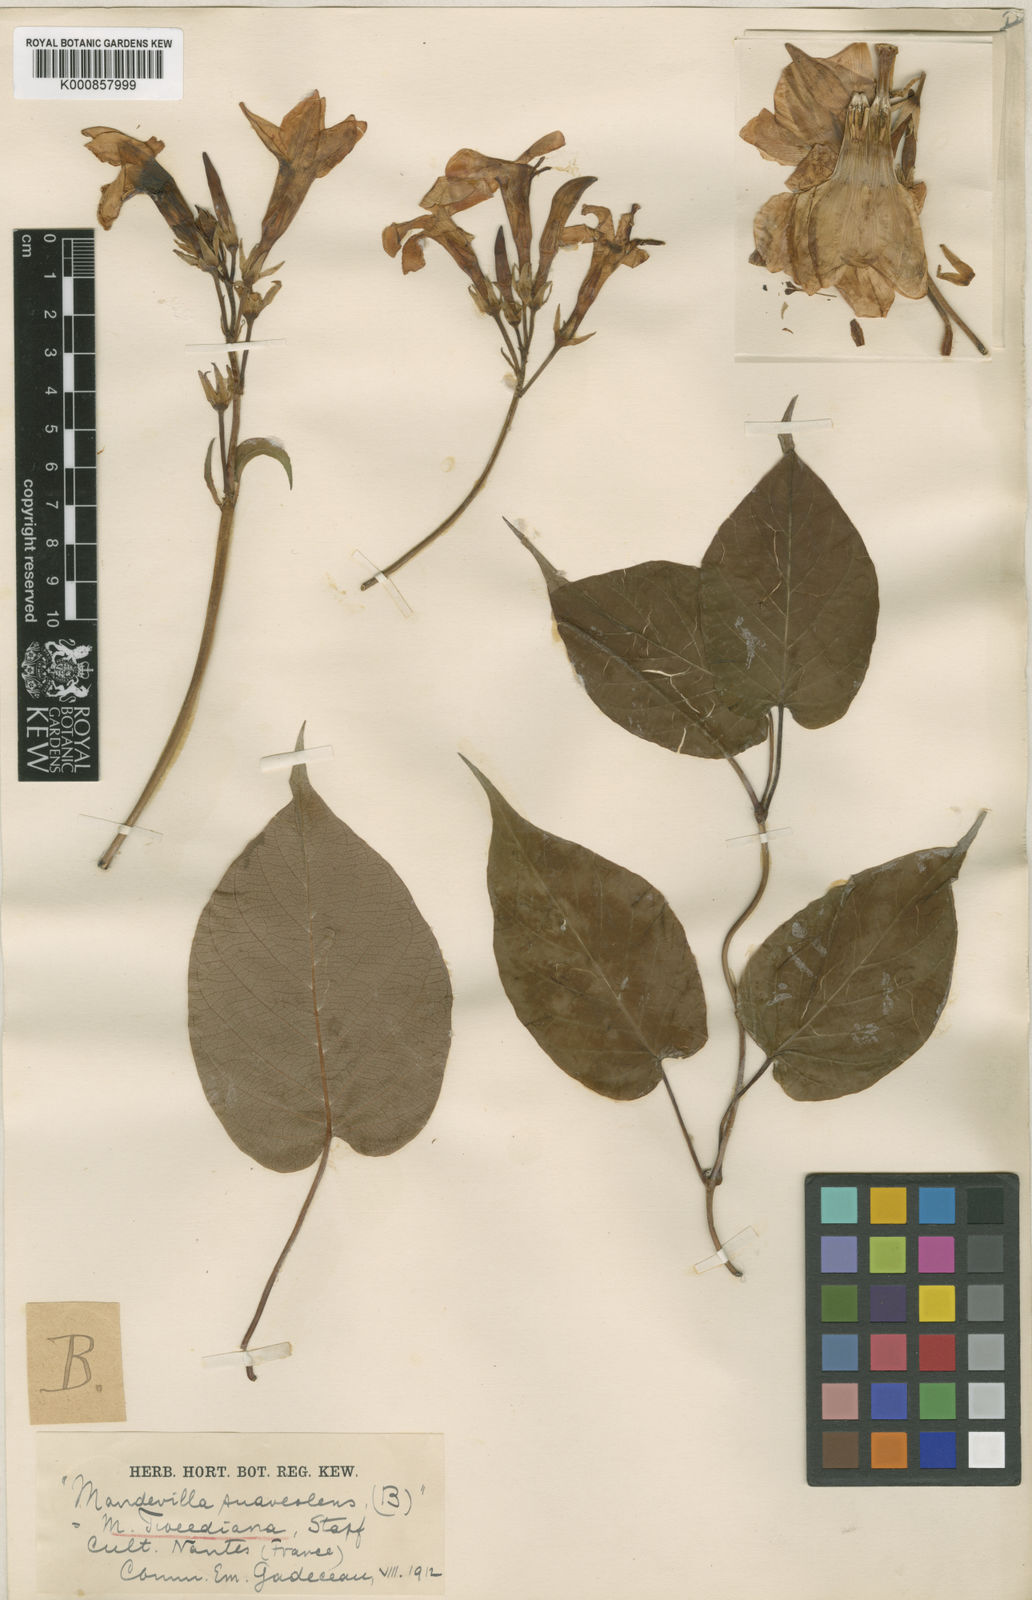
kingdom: Plantae
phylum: Tracheophyta
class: Magnoliopsida
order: Gentianales
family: Apocynaceae
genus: Mandevilla
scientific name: Mandevilla laxa
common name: Chilean-jasmine
